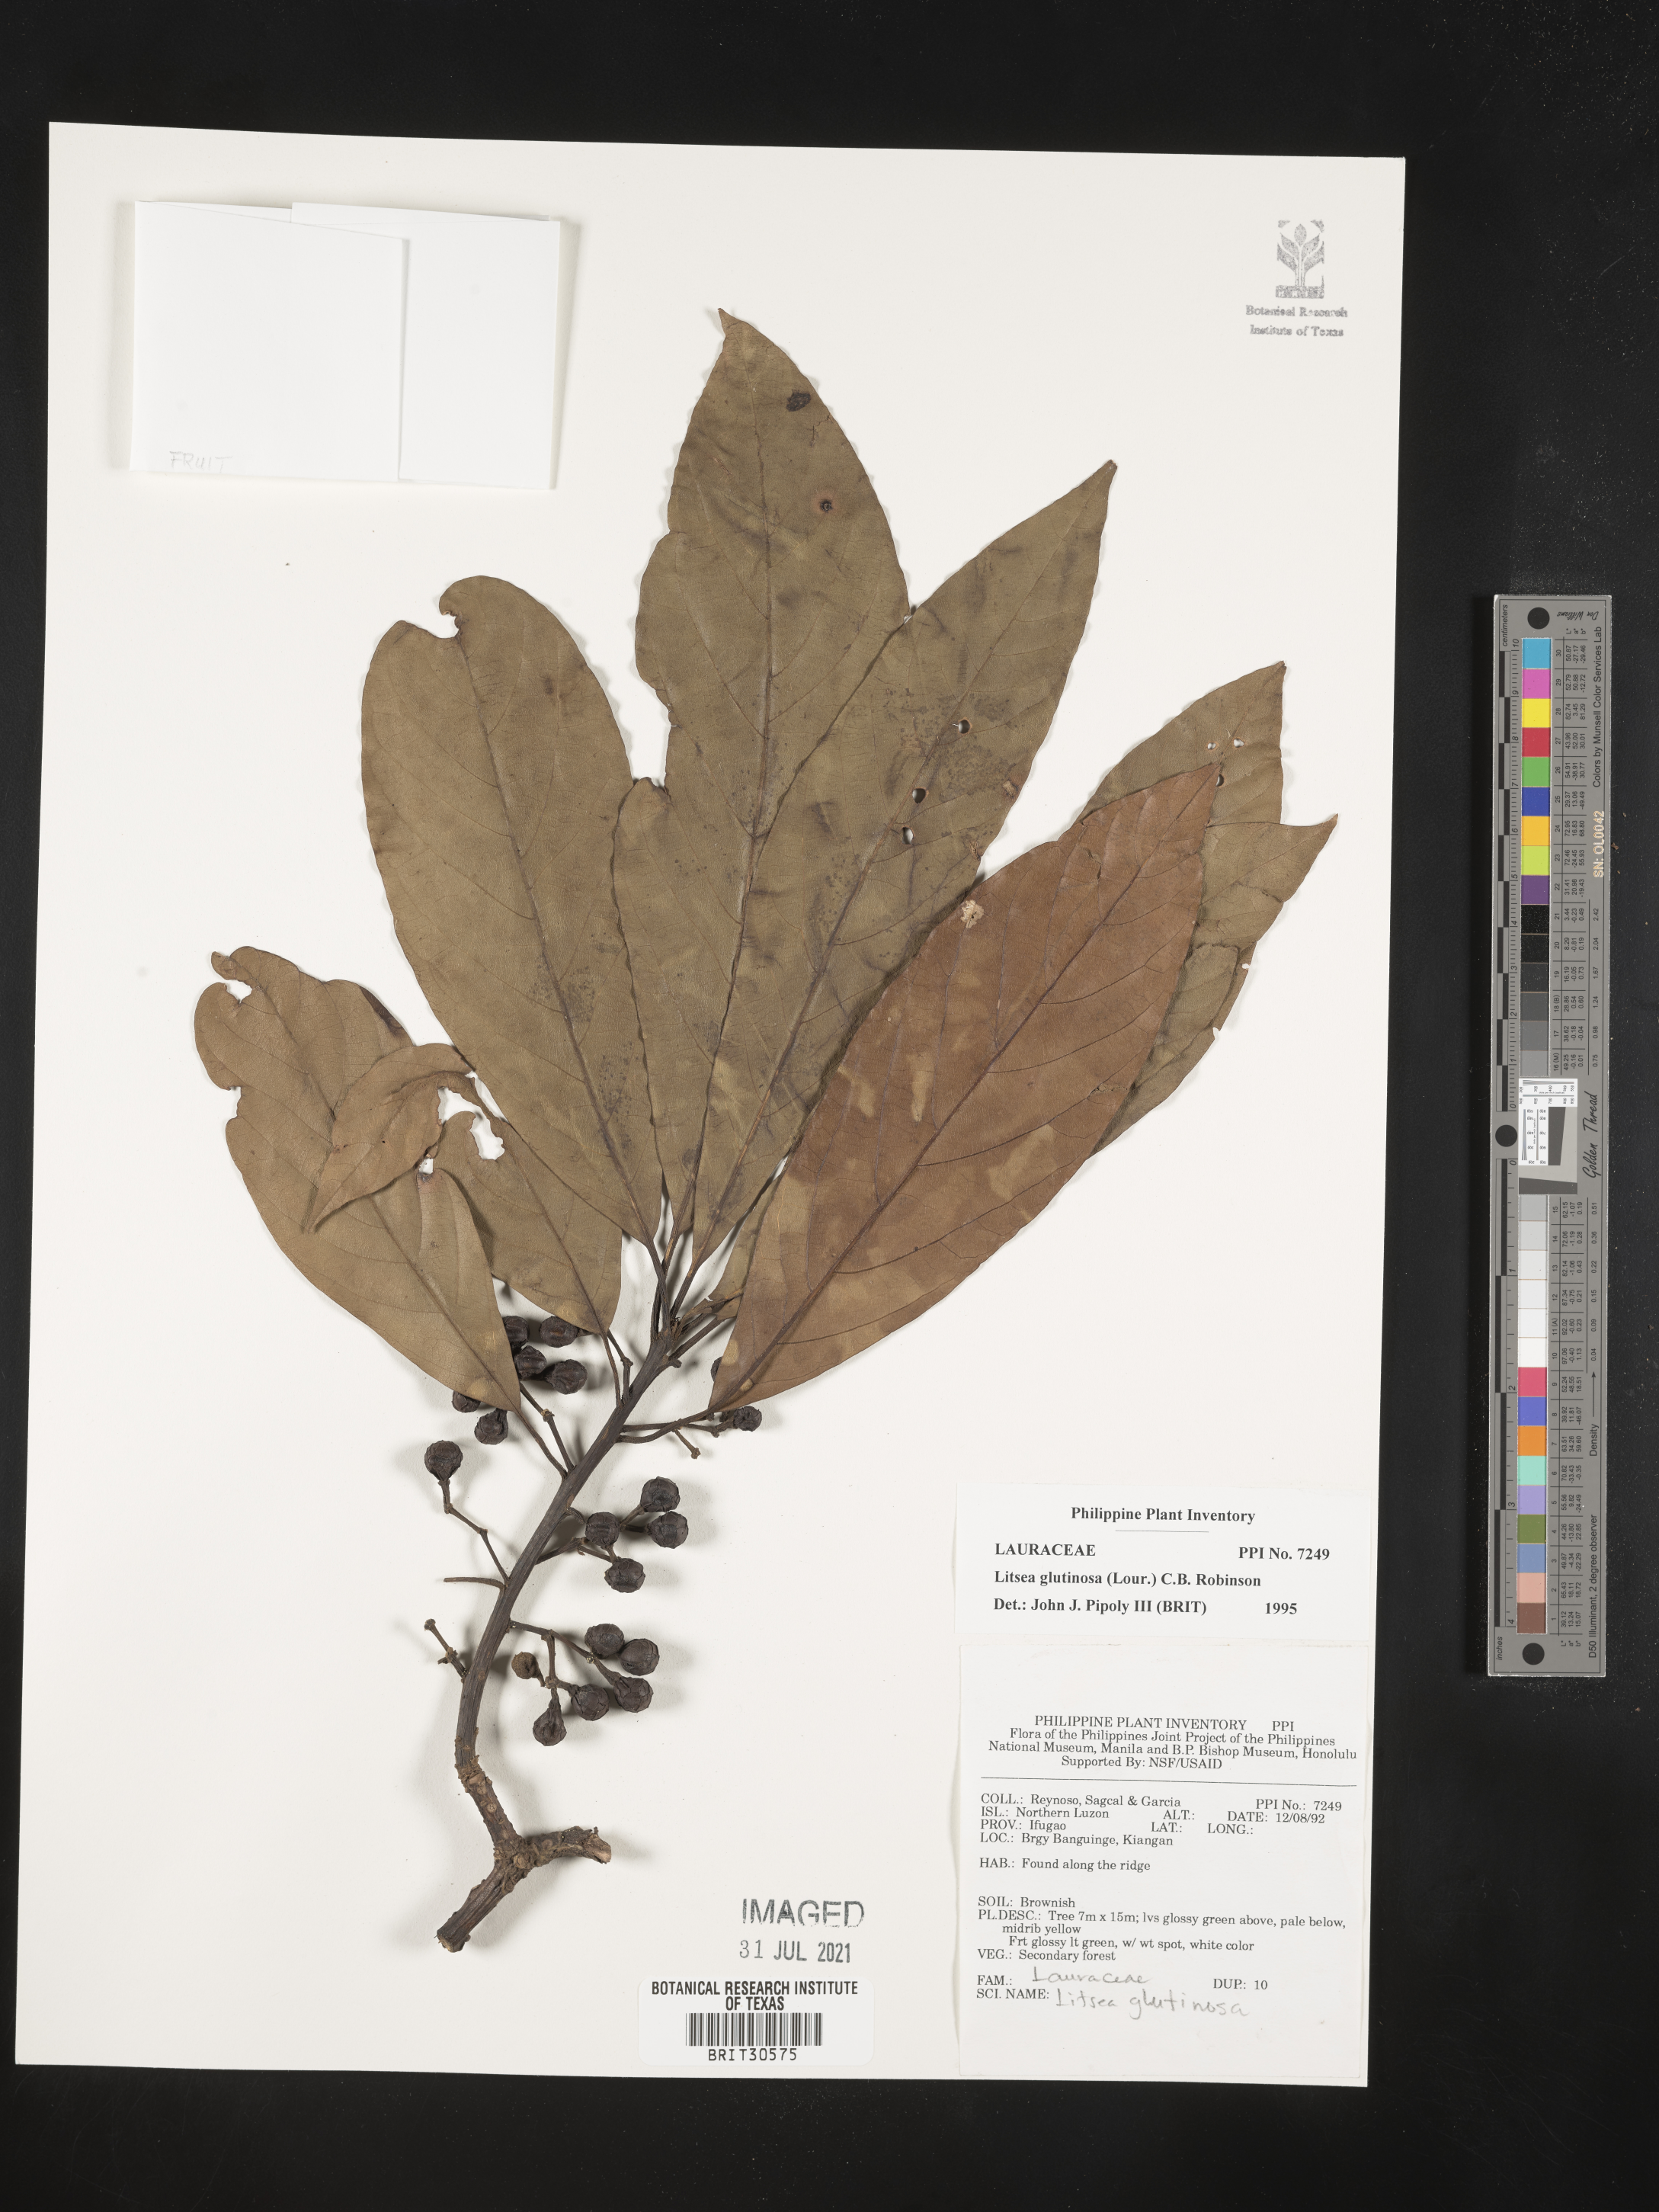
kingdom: Plantae
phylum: Tracheophyta
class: Magnoliopsida
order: Laurales
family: Lauraceae
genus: Litsea
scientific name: Litsea glutinosa
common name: Indian-laurel
